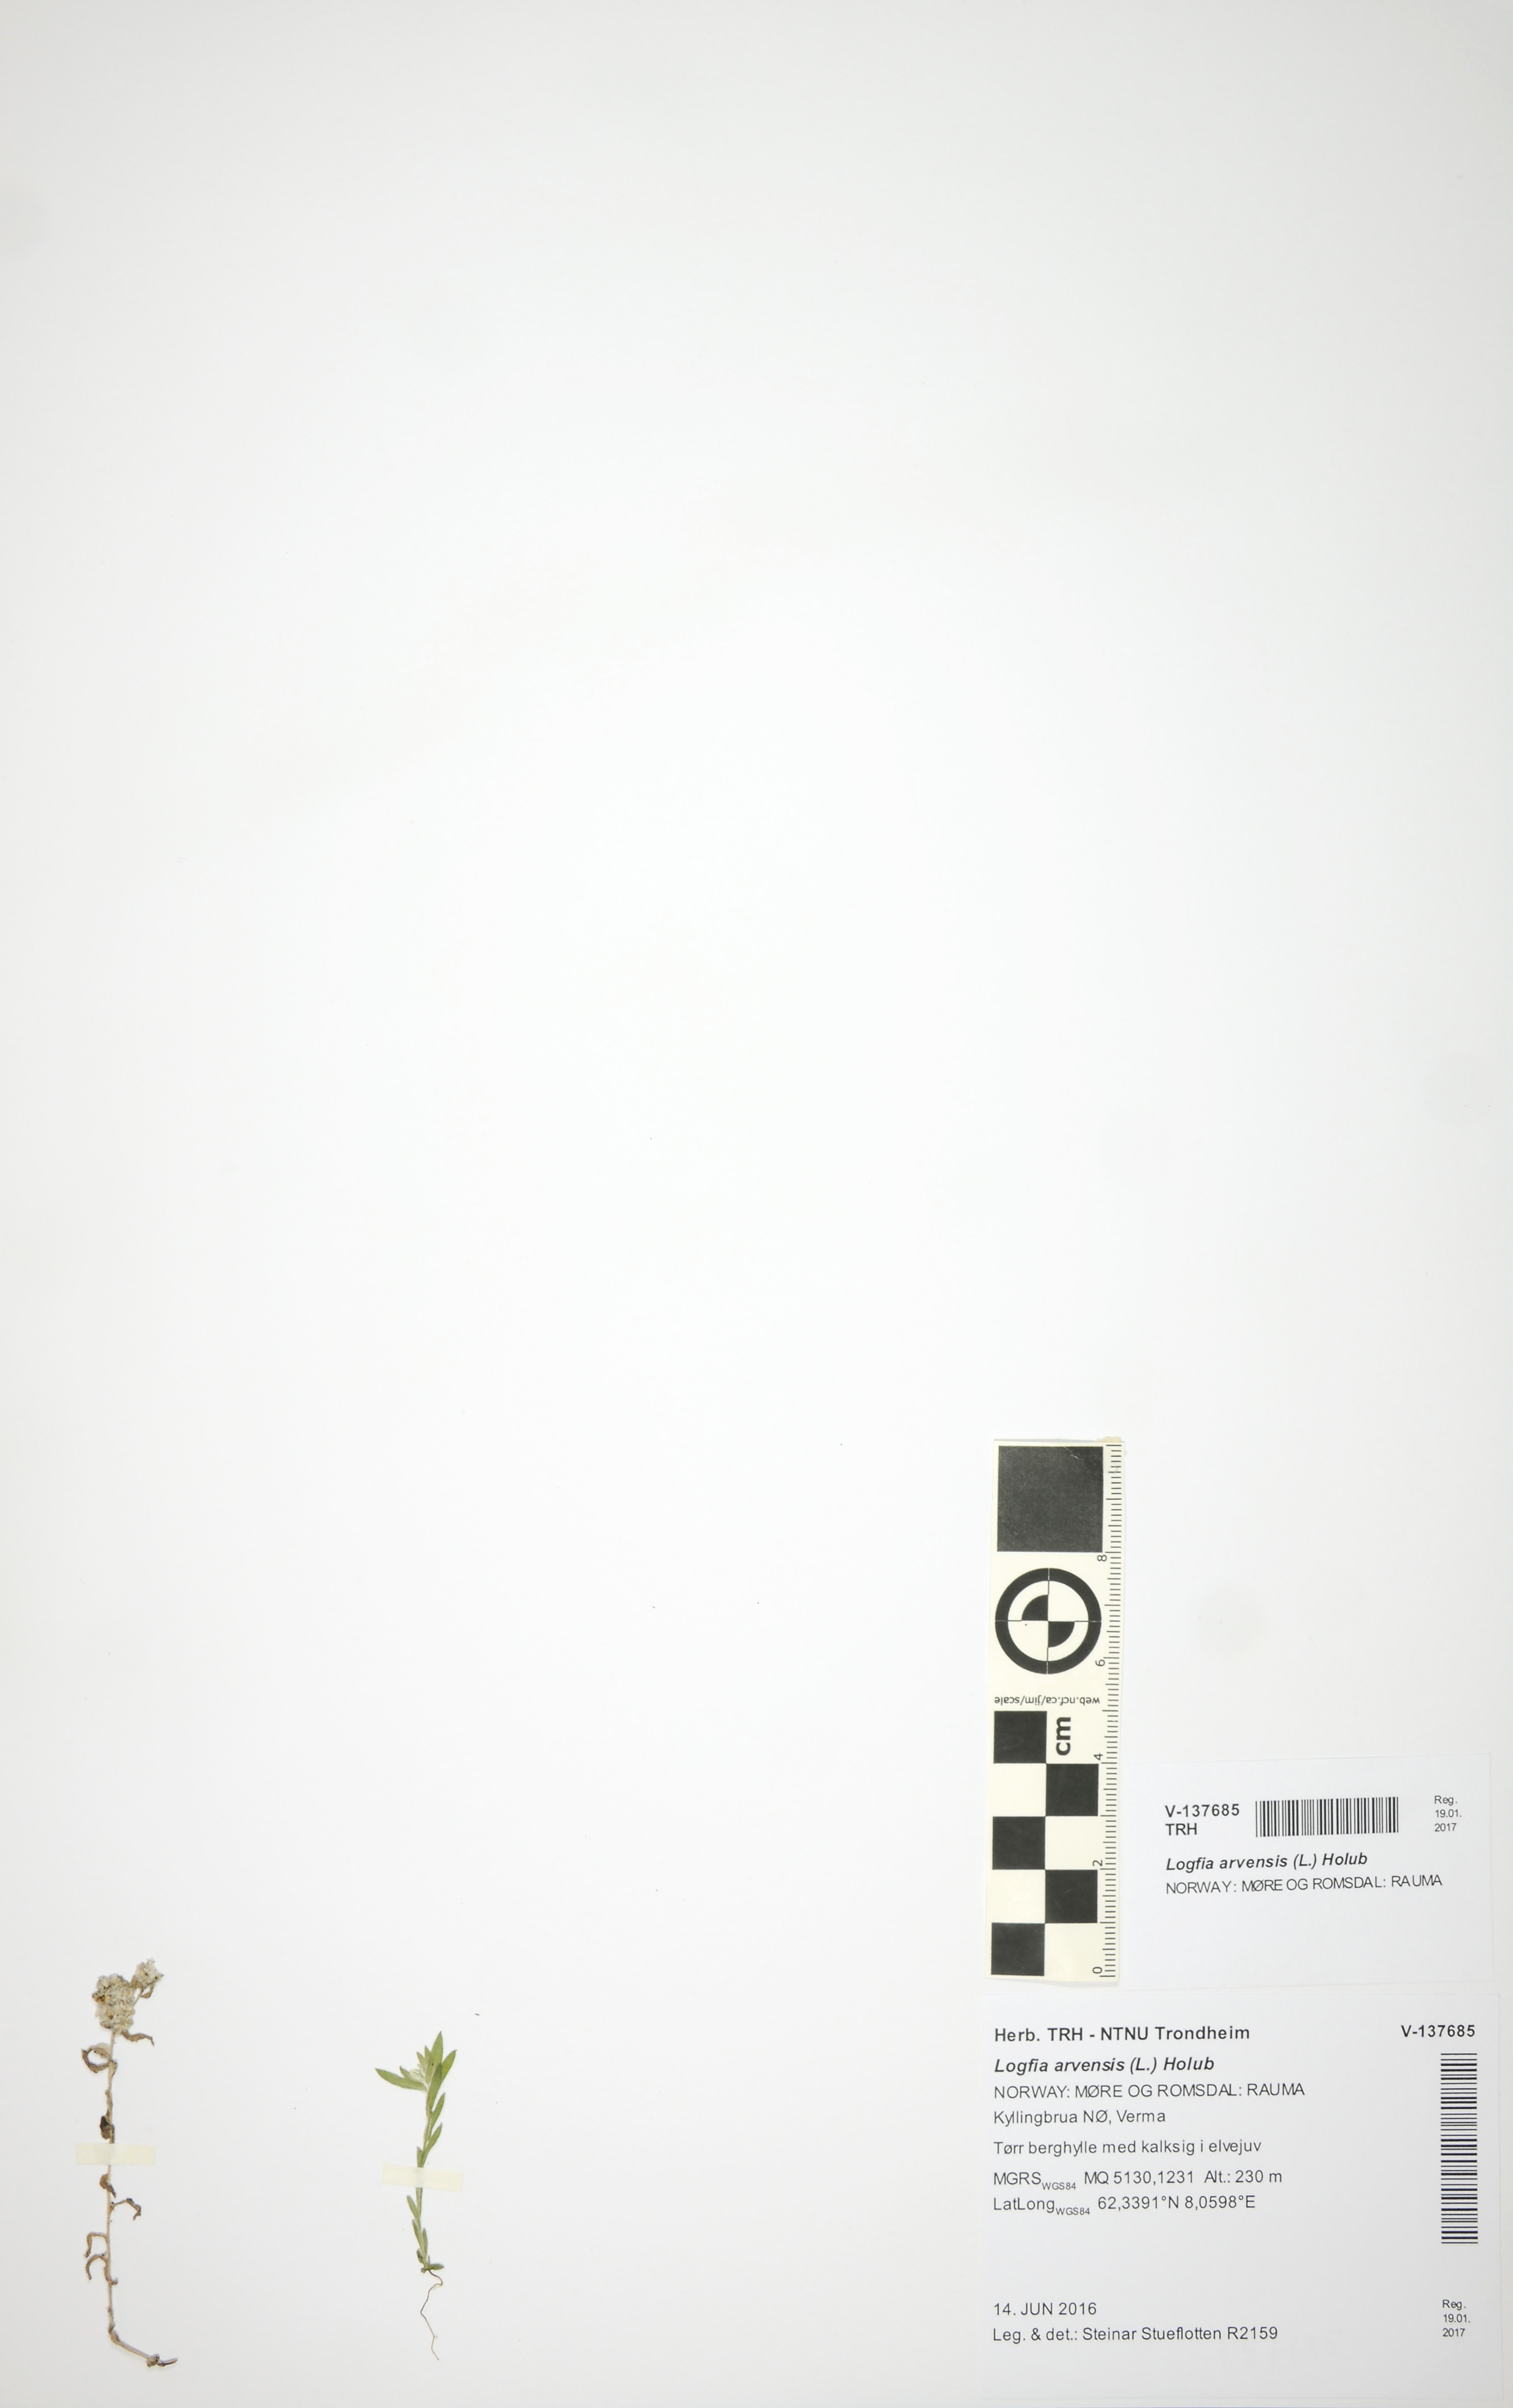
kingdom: Plantae
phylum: Tracheophyta
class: Magnoliopsida
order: Asterales
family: Asteraceae
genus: Filago
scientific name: Filago arvensis
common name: Field cudweed
